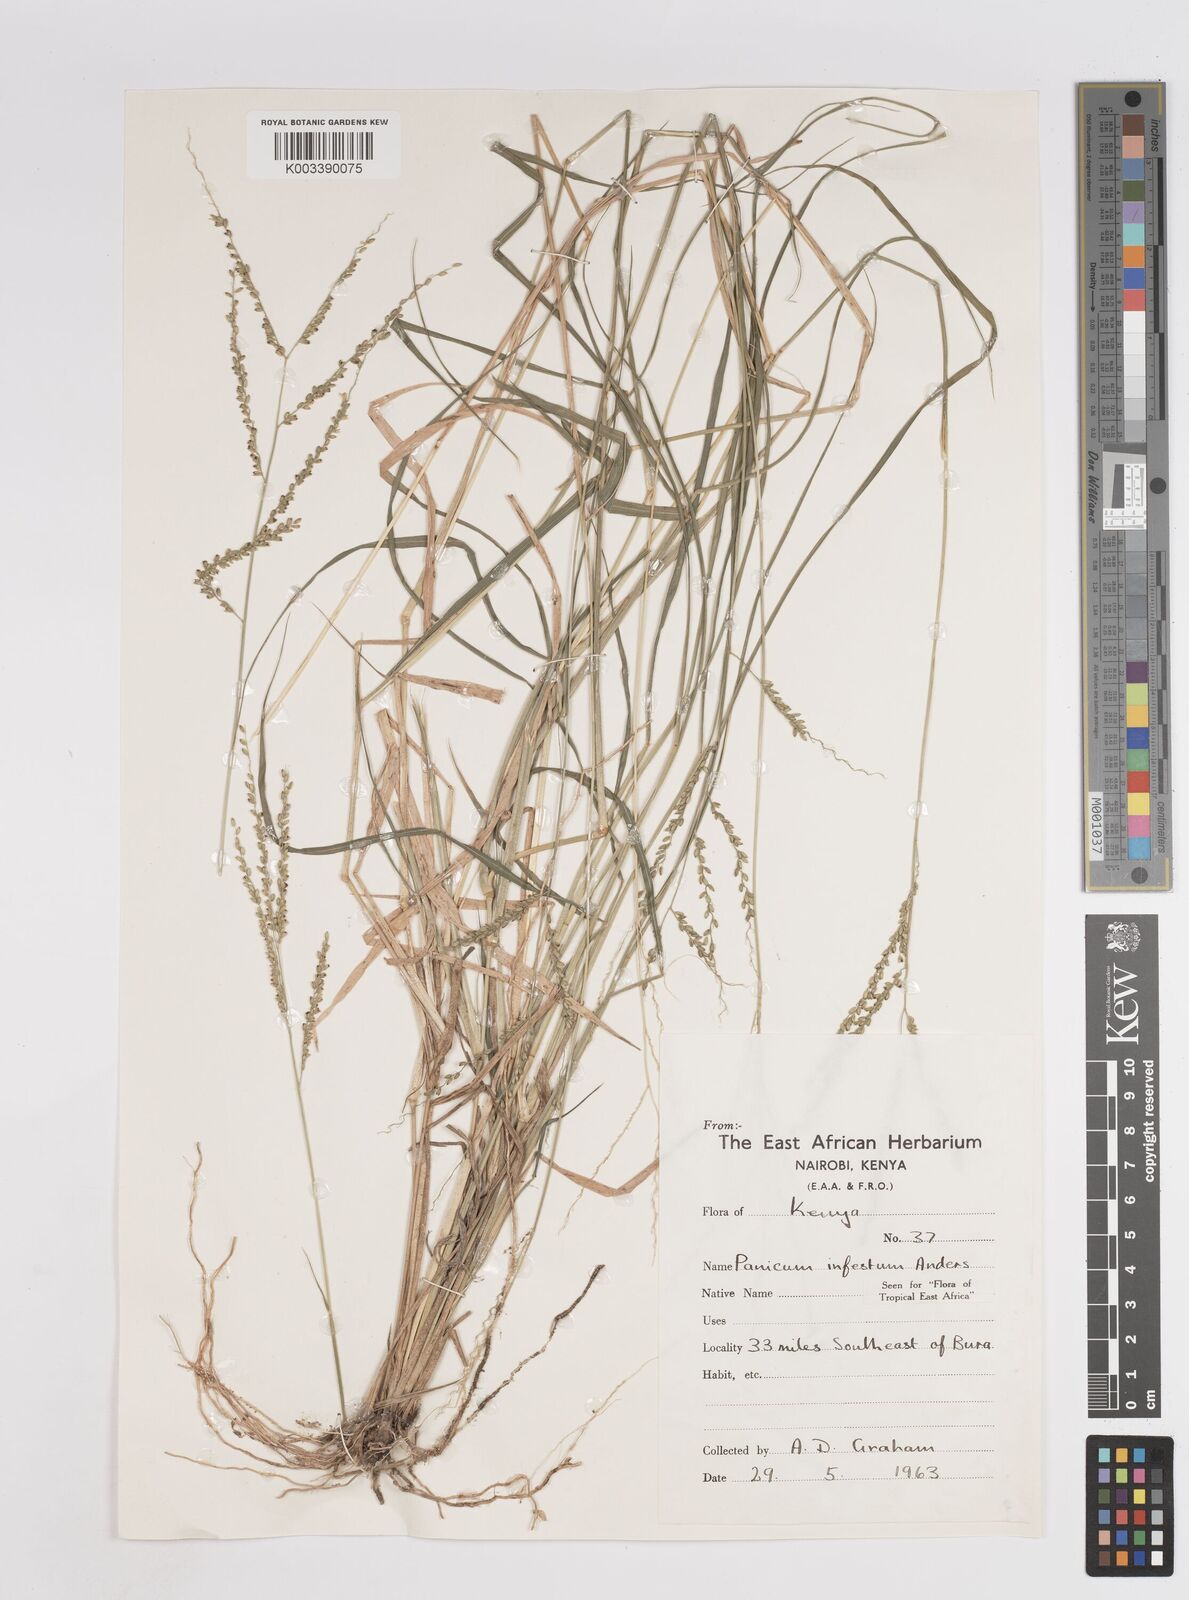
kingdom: Plantae
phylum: Tracheophyta
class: Liliopsida
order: Poales
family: Poaceae
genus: Megathyrsus
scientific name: Megathyrsus infestus
